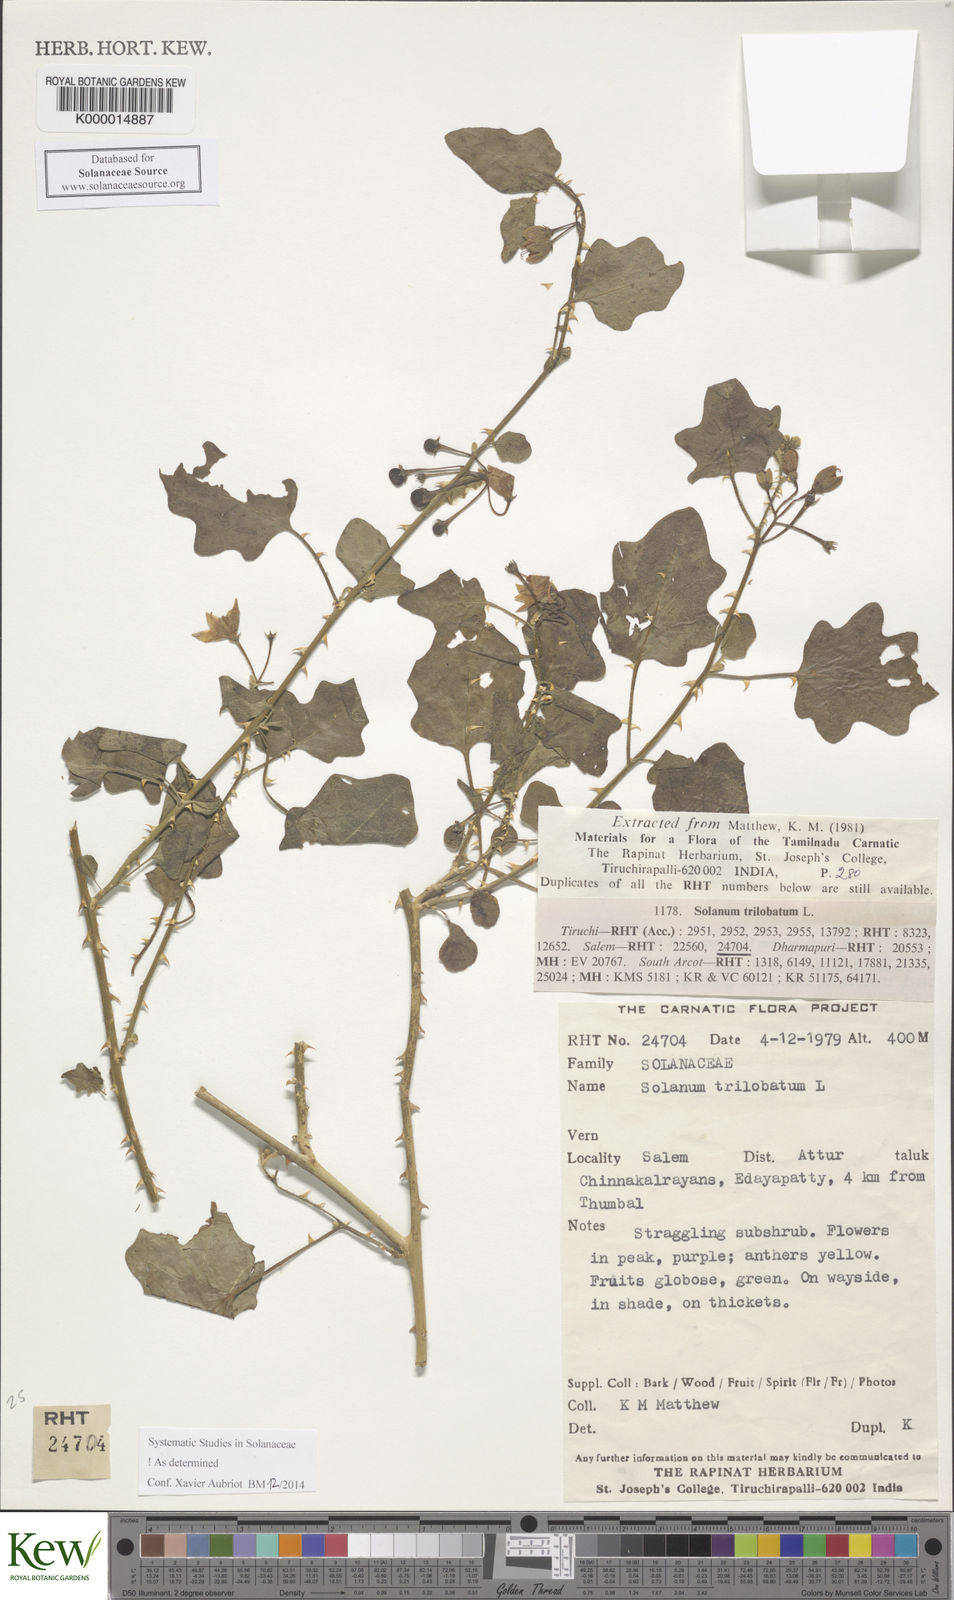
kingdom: Plantae
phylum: Tracheophyta
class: Magnoliopsida
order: Solanales
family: Solanaceae
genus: Solanum
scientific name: Solanum trilobatum
